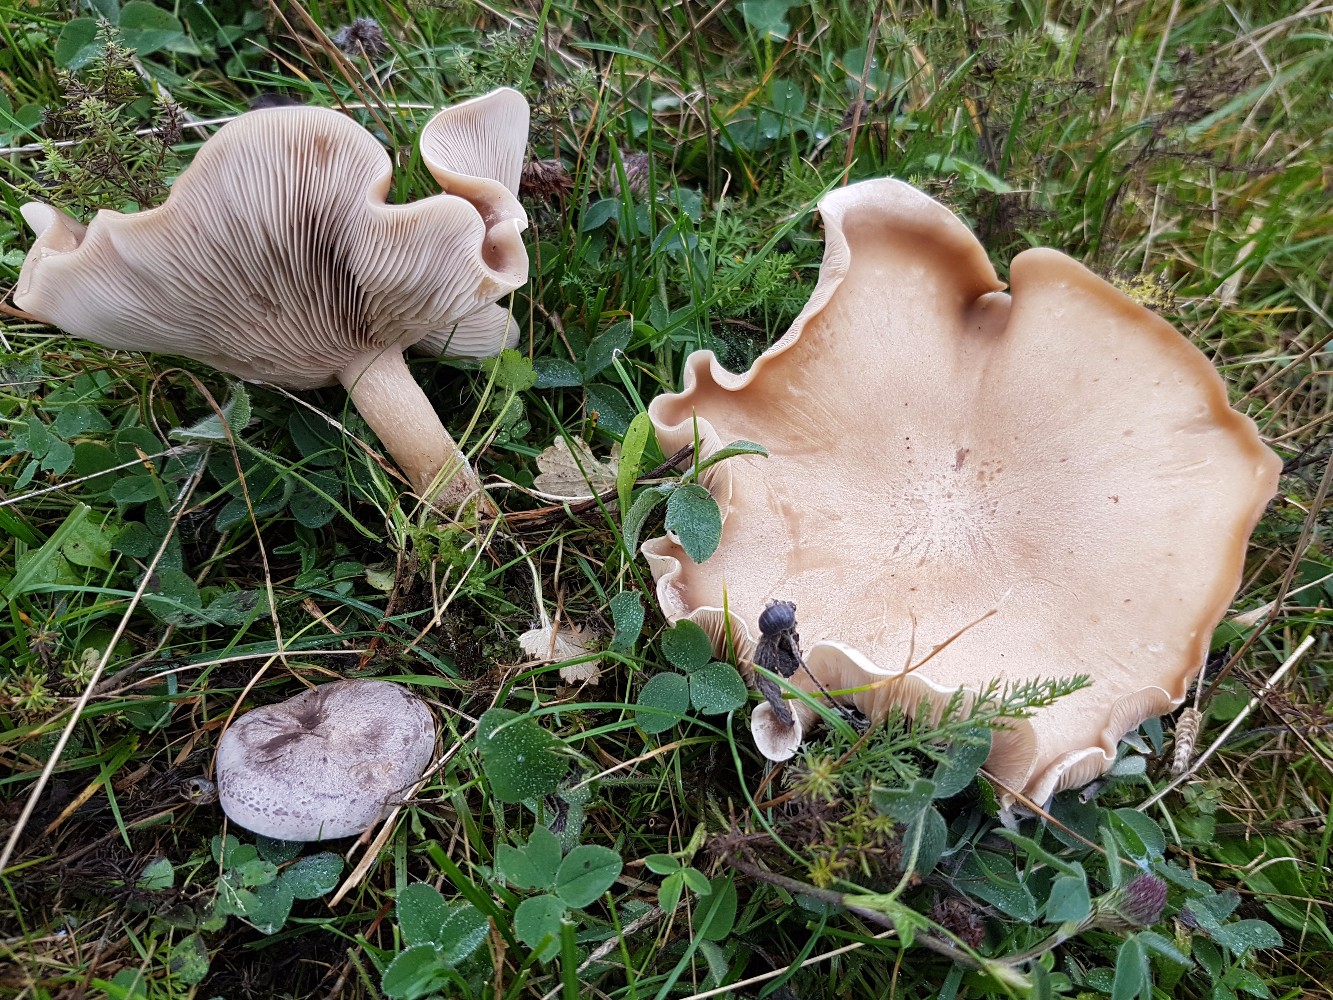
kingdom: Fungi
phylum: Basidiomycota
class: Agaricomycetes
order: Agaricales
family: Tricholomataceae
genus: Lepista
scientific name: Lepista panaeolus
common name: marmoreret hekseringshat
